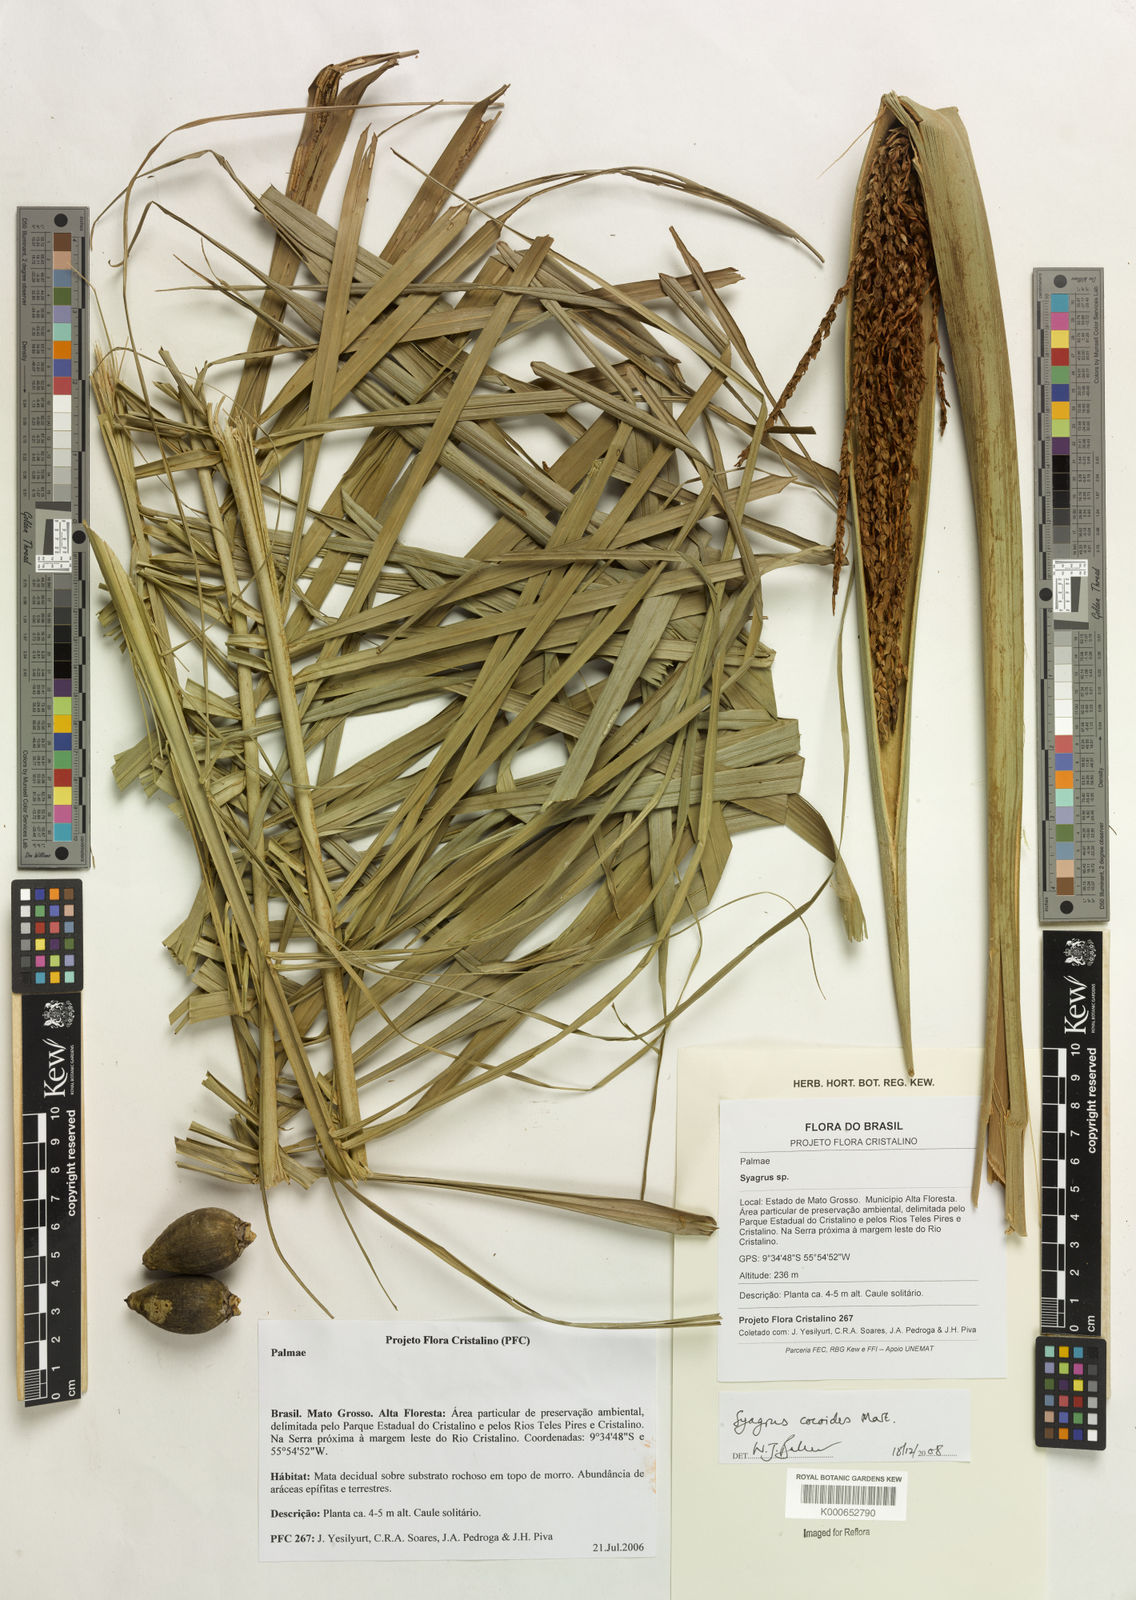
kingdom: Plantae
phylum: Tracheophyta
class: Liliopsida
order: Arecales
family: Arecaceae
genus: Syagrus
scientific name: Syagrus cocoides
